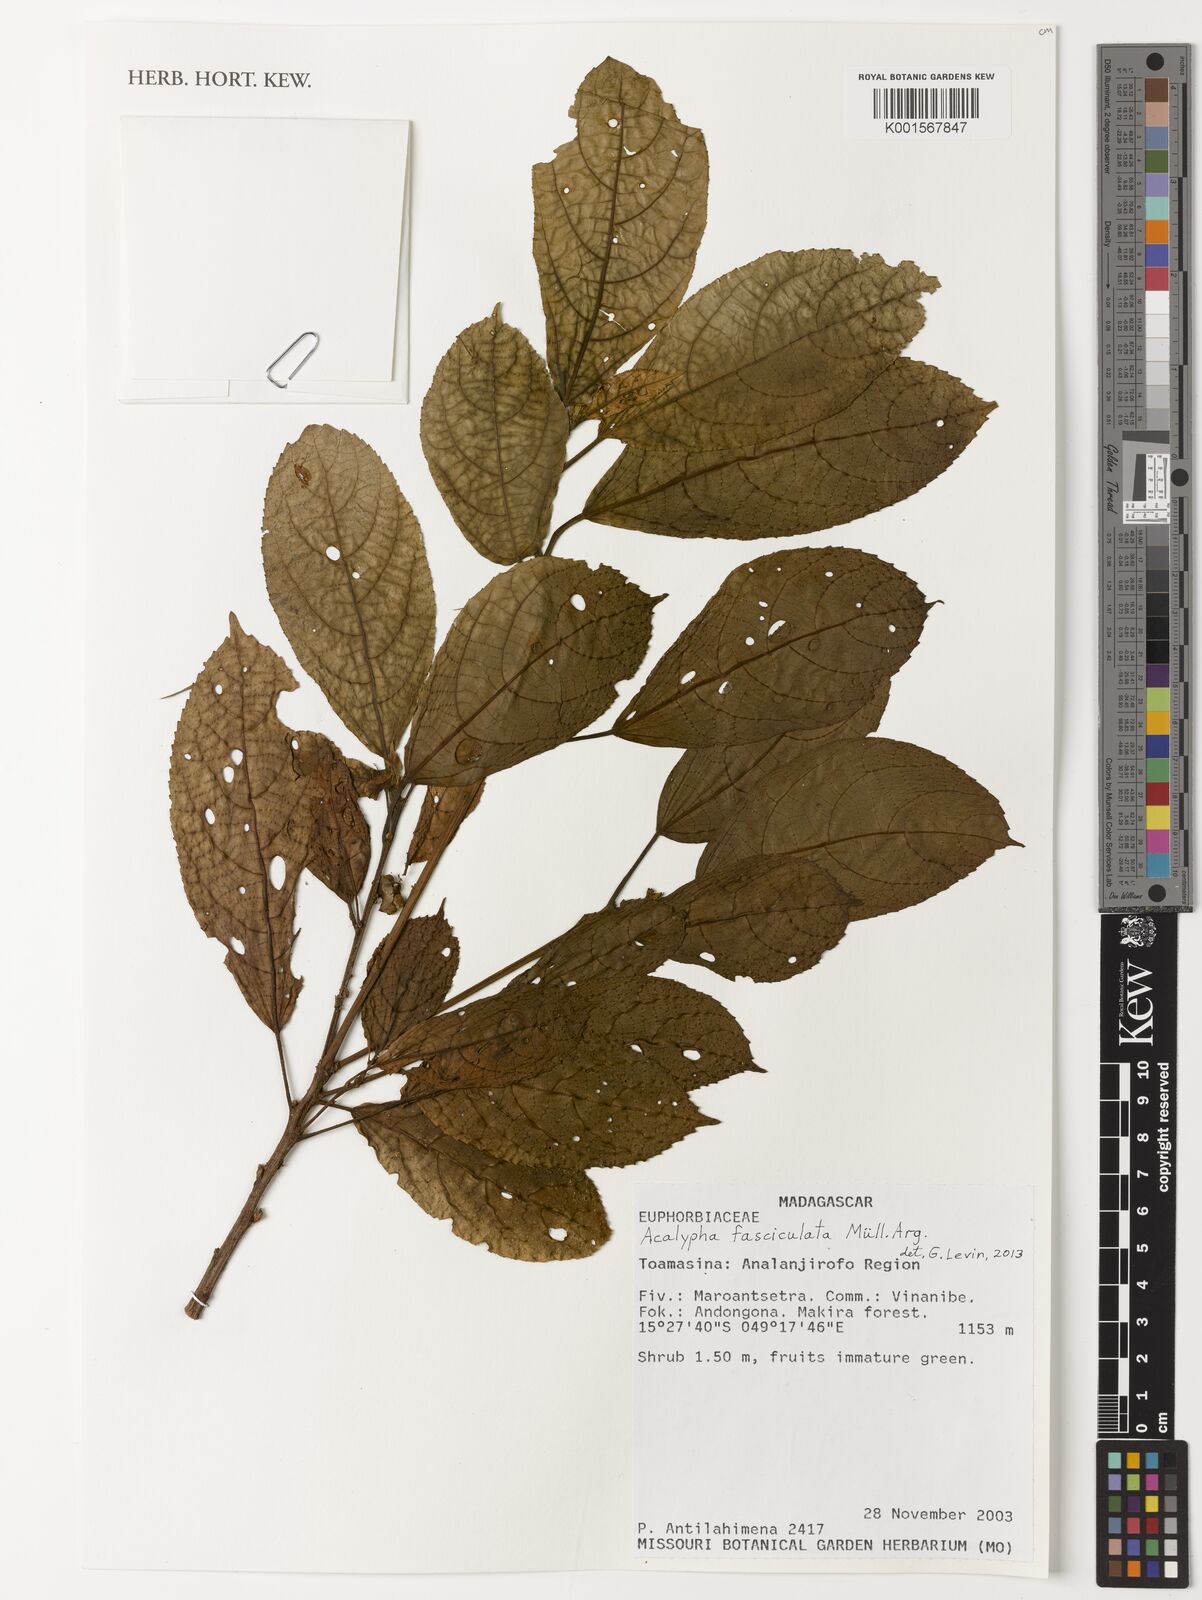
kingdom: Plantae
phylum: Tracheophyta
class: Magnoliopsida
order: Malpighiales
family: Euphorbiaceae
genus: Acalypha
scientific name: Acalypha fasciculata
